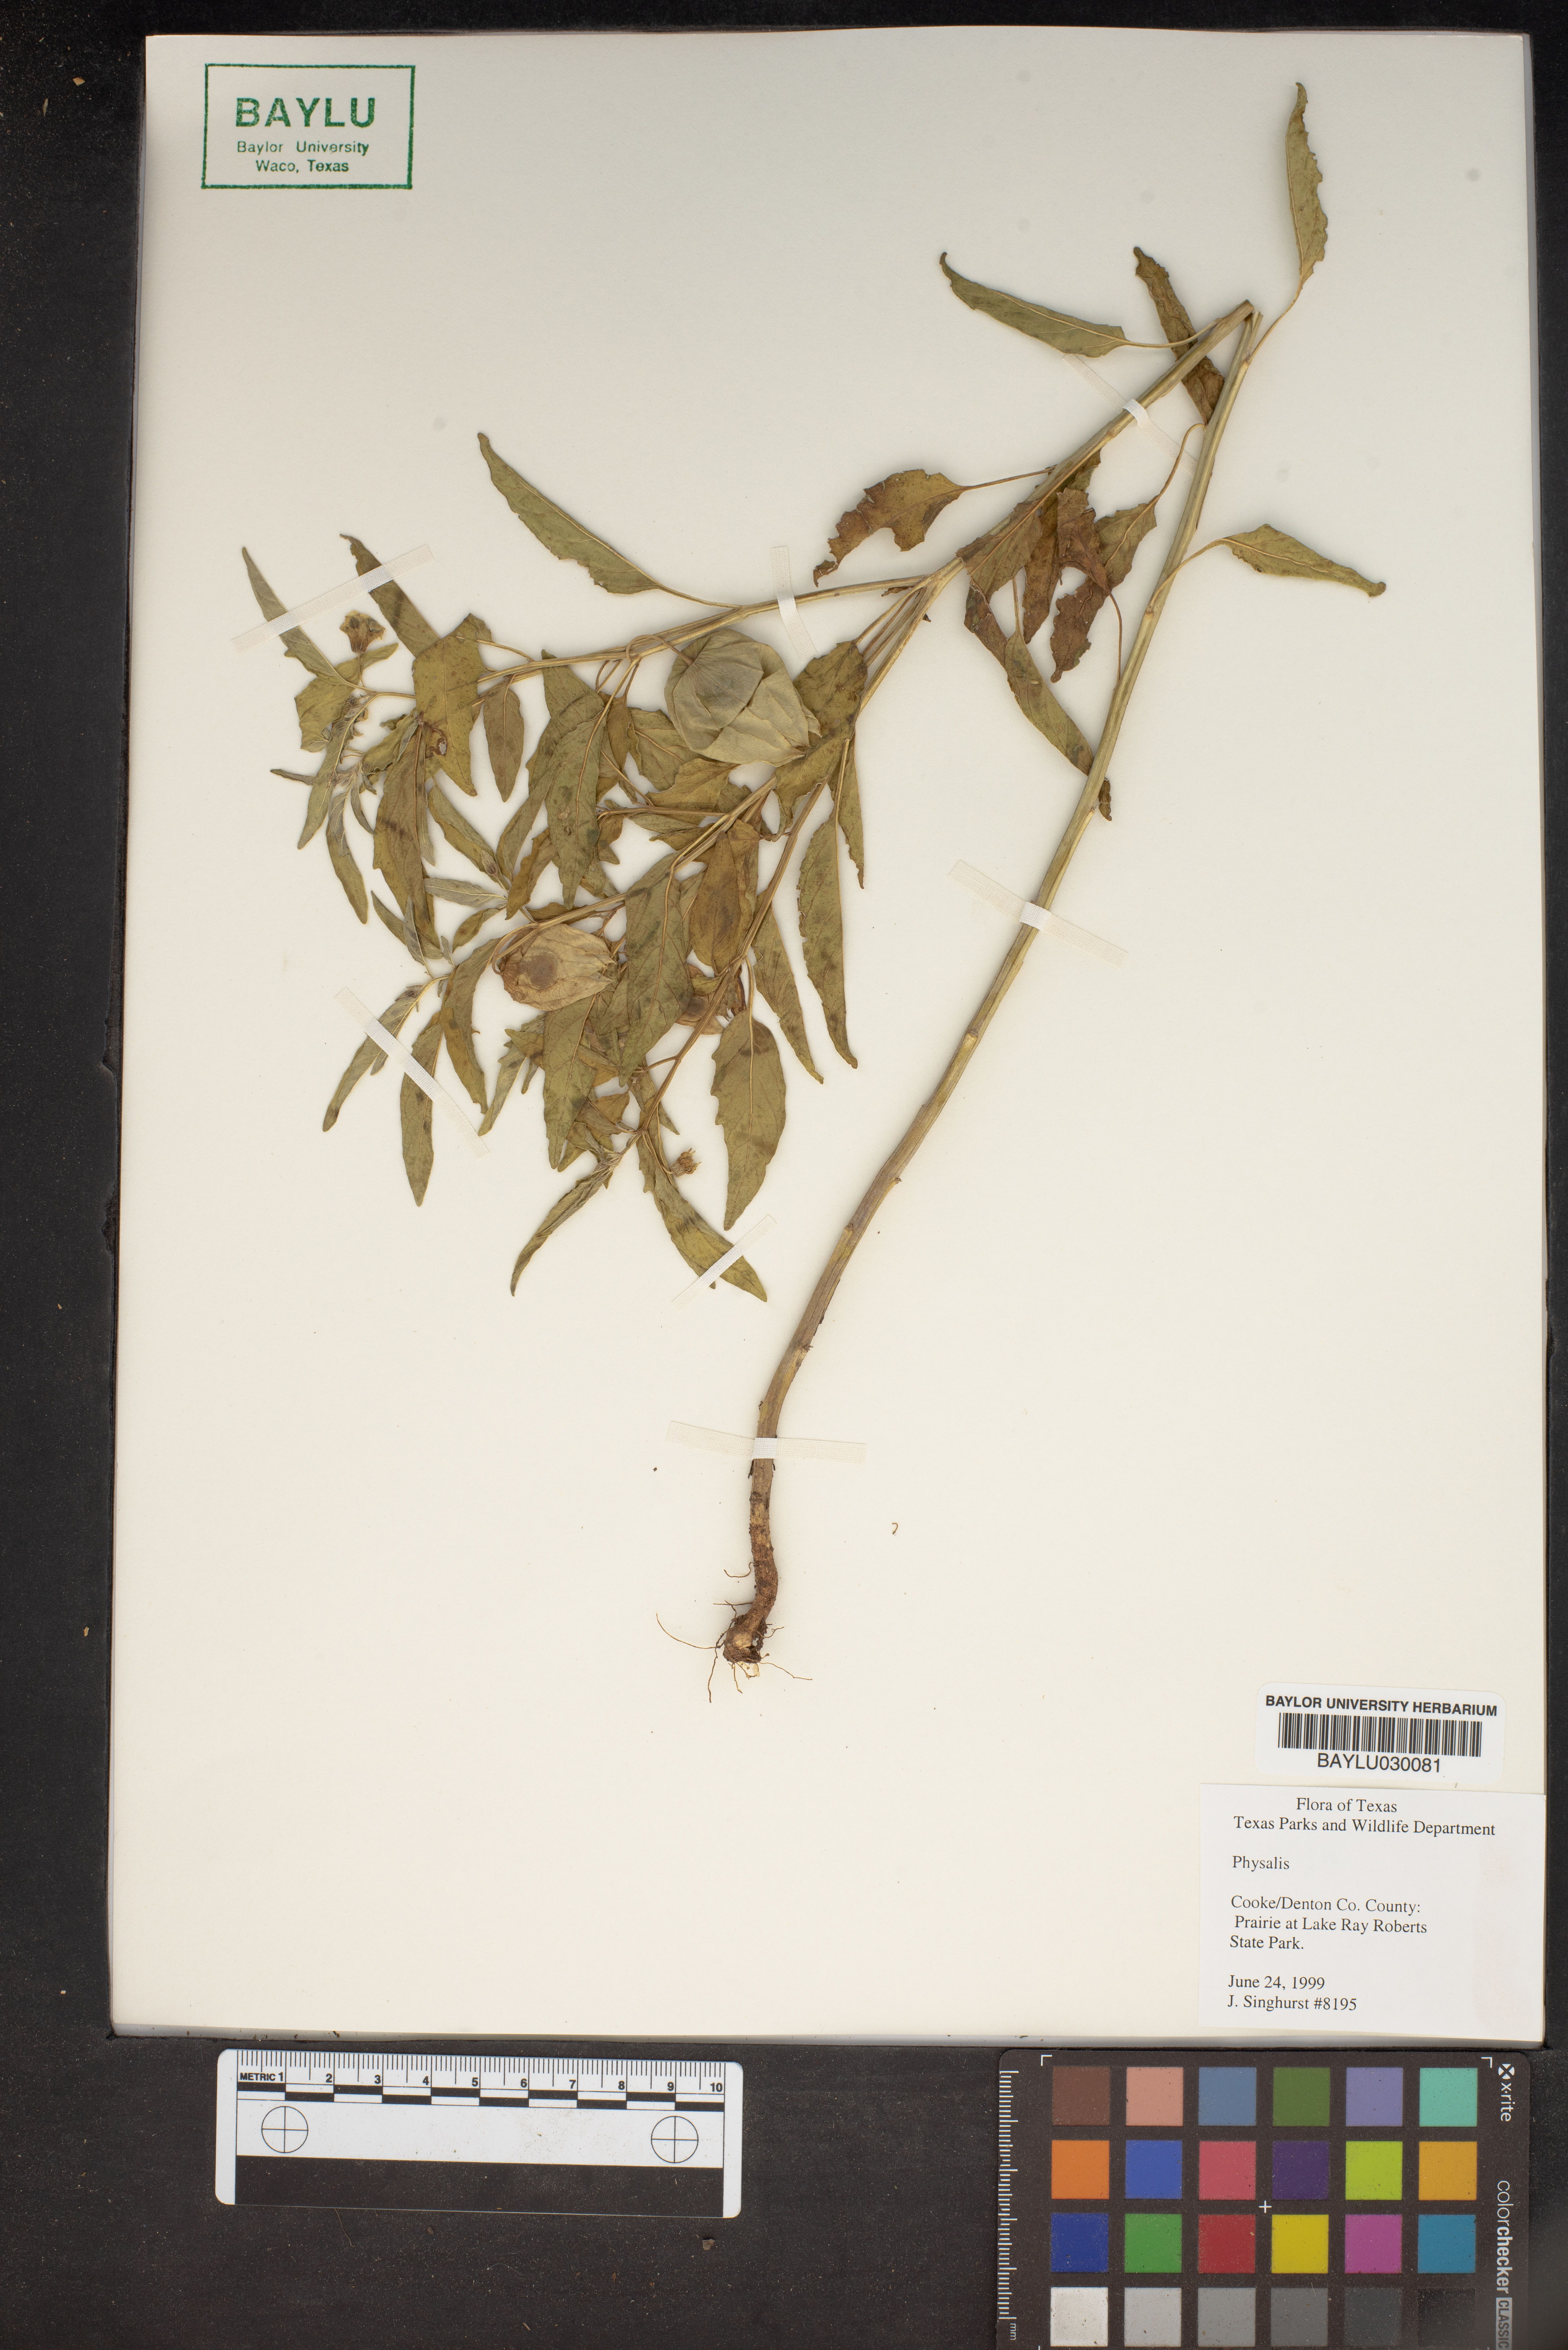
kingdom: Plantae
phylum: Tracheophyta
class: Magnoliopsida
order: Solanales
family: Solanaceae
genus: Physalis
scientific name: Physalis
